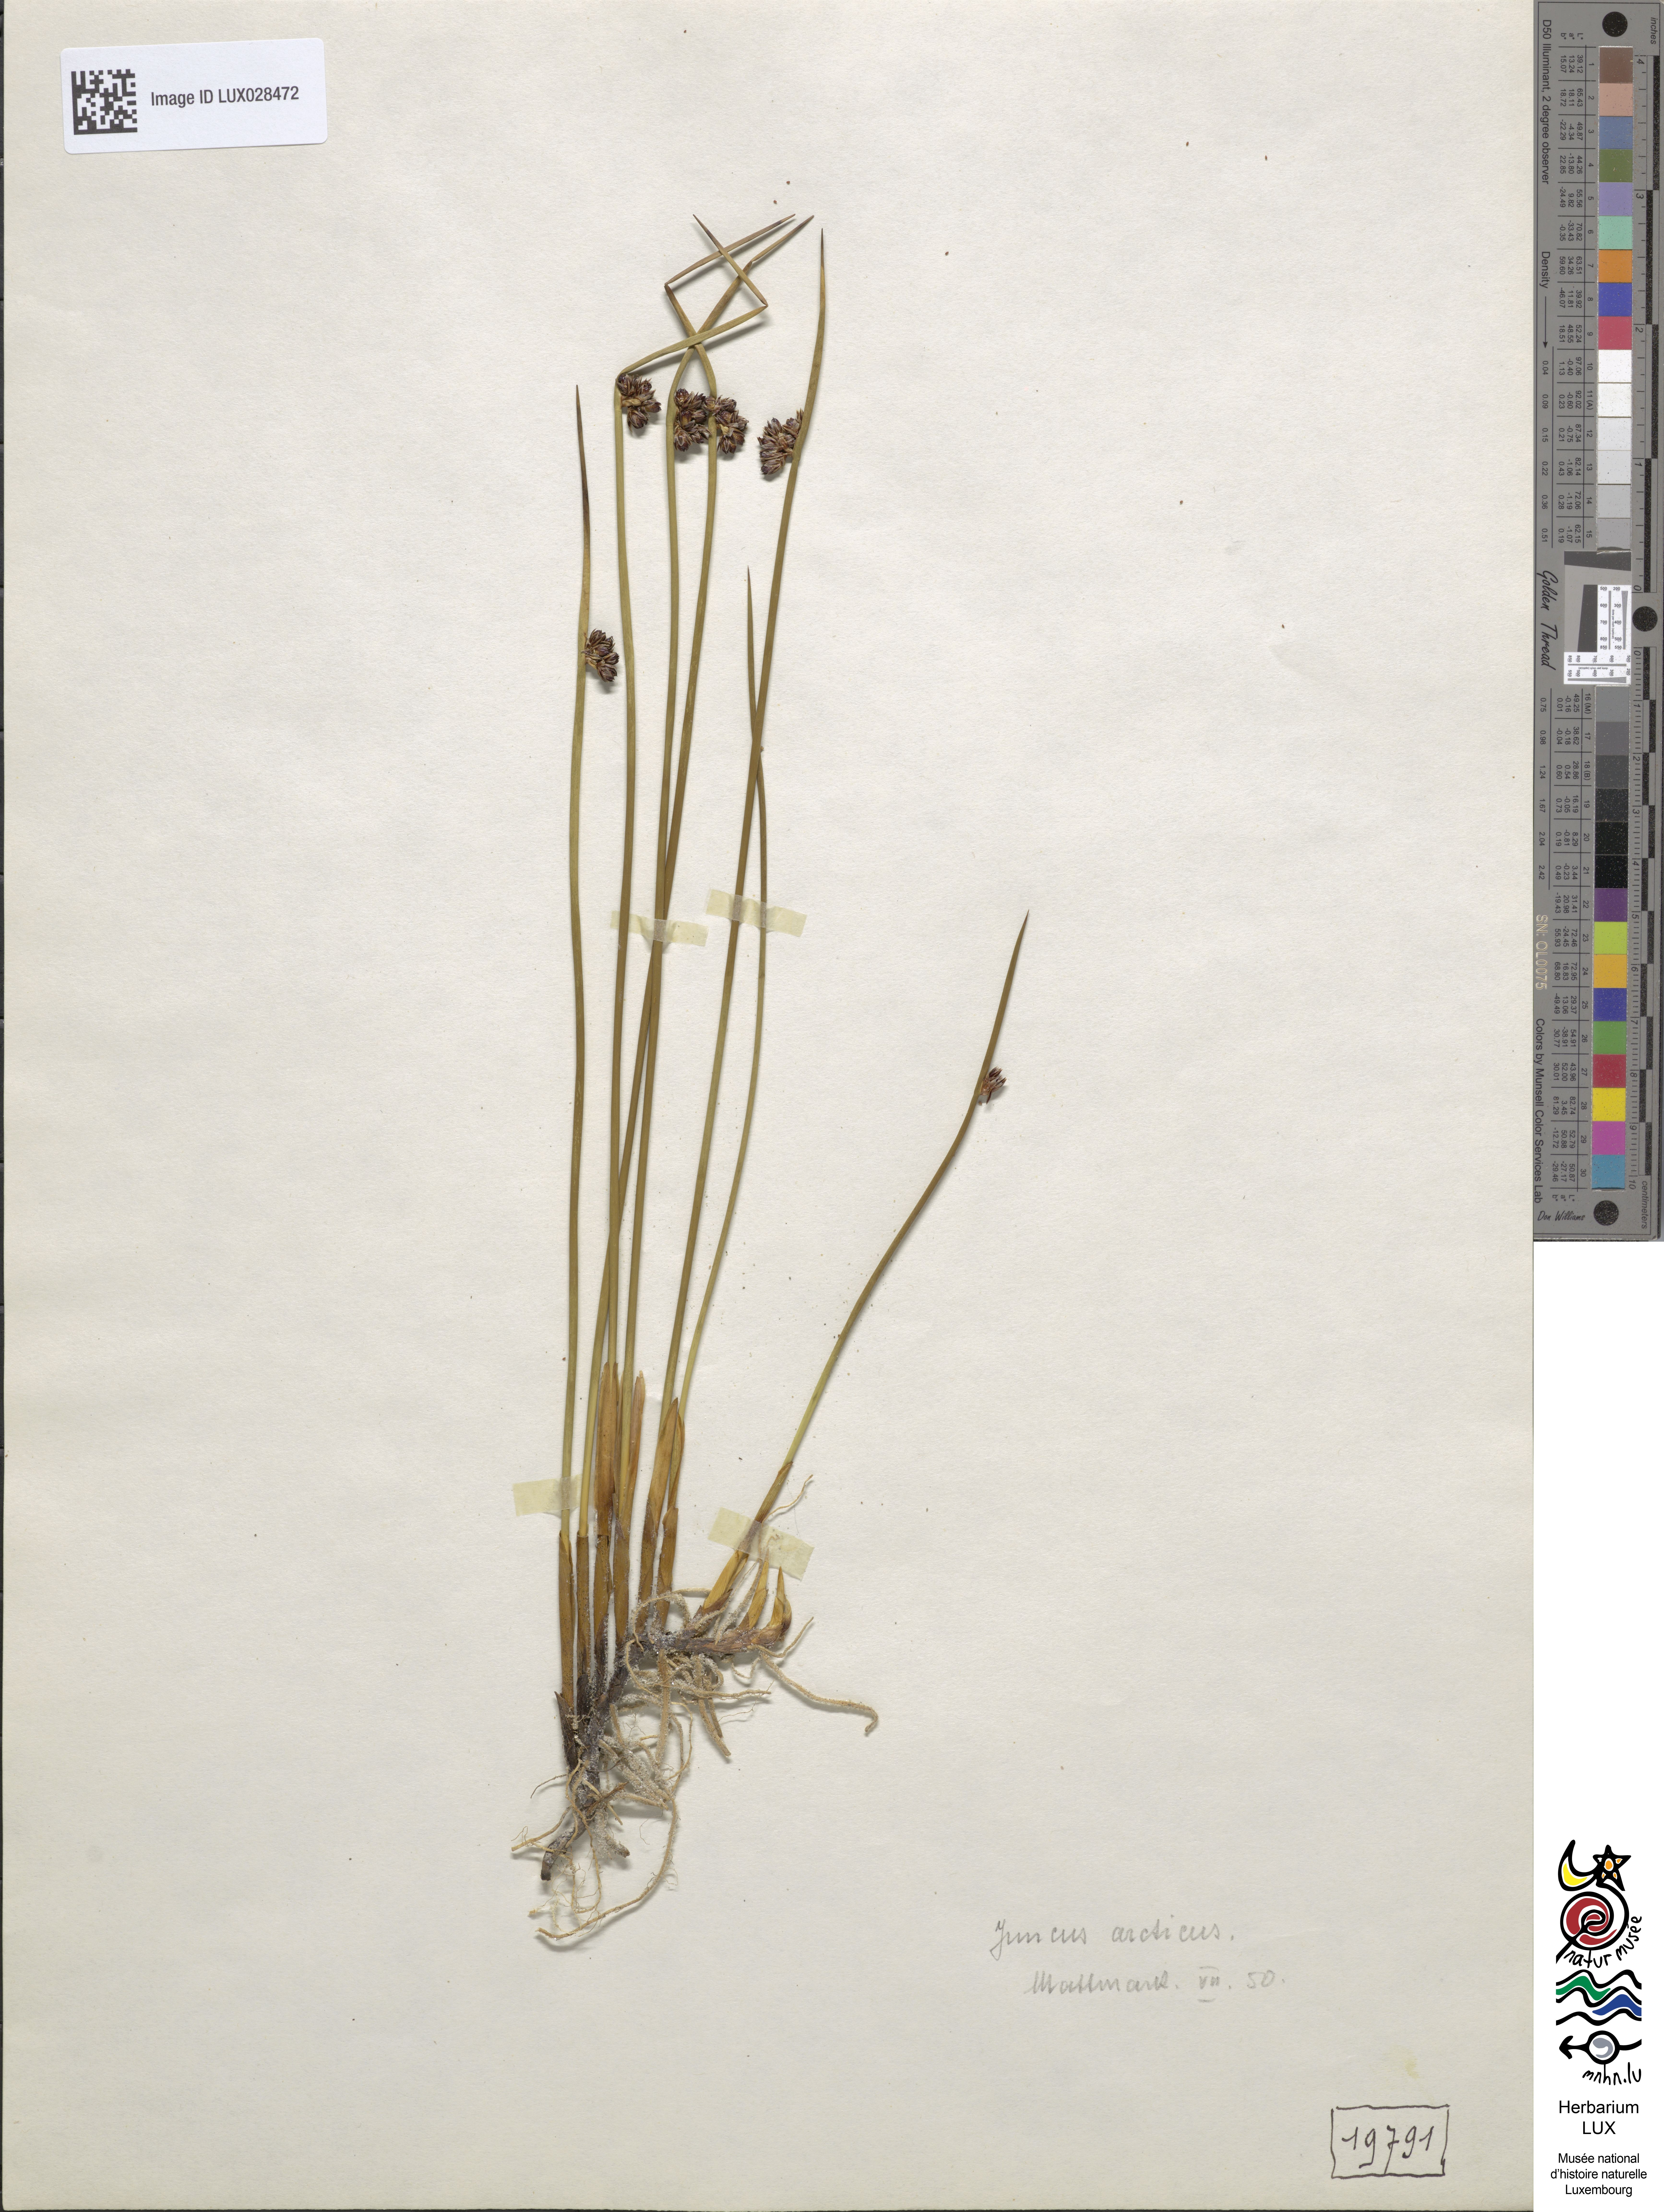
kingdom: Plantae
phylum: Tracheophyta
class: Liliopsida
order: Poales
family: Juncaceae
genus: Juncus
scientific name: Juncus arcticus
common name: Arctic rush
